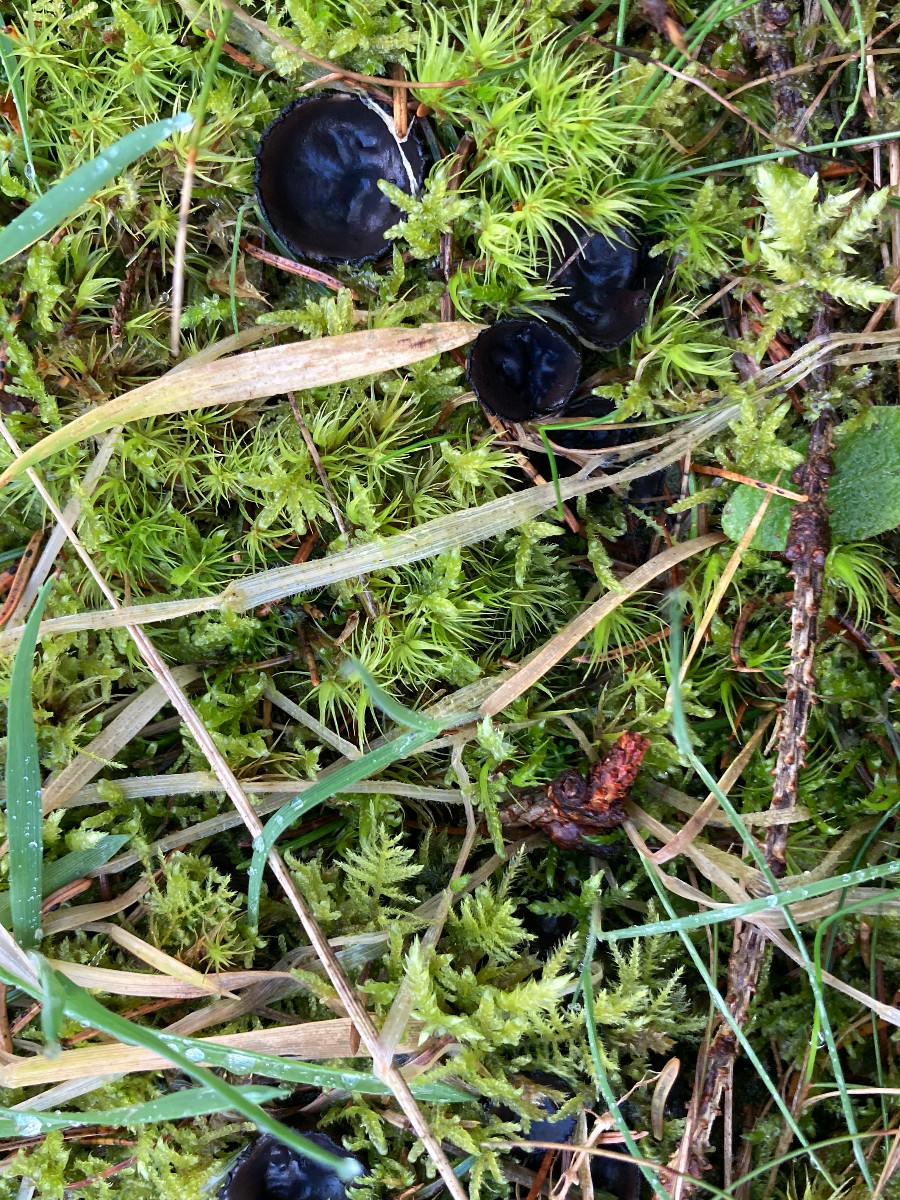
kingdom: Fungi
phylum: Ascomycota
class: Pezizomycetes
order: Pezizales
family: Sarcosomataceae
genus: Pseudoplectania
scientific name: Pseudoplectania nigrella
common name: almindelig sortbæger
